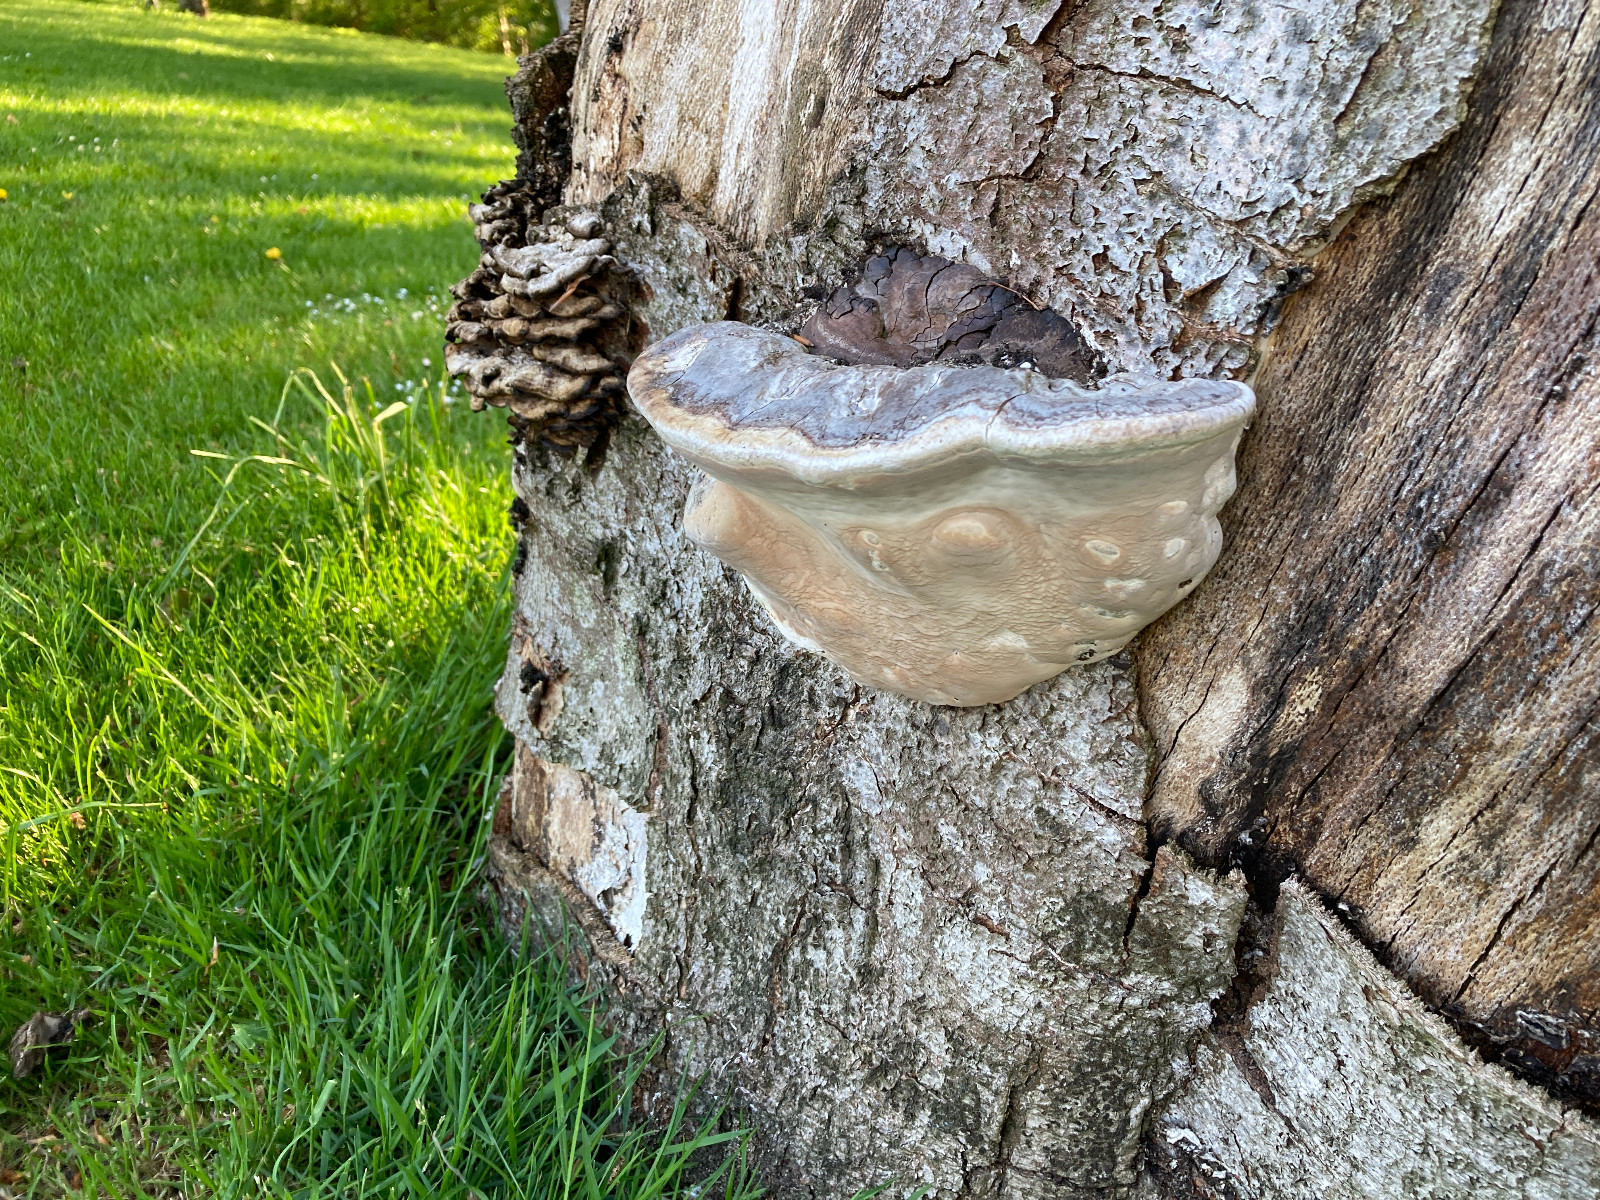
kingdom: Fungi
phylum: Basidiomycota
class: Agaricomycetes
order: Polyporales
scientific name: Polyporales
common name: poresvampordenen
